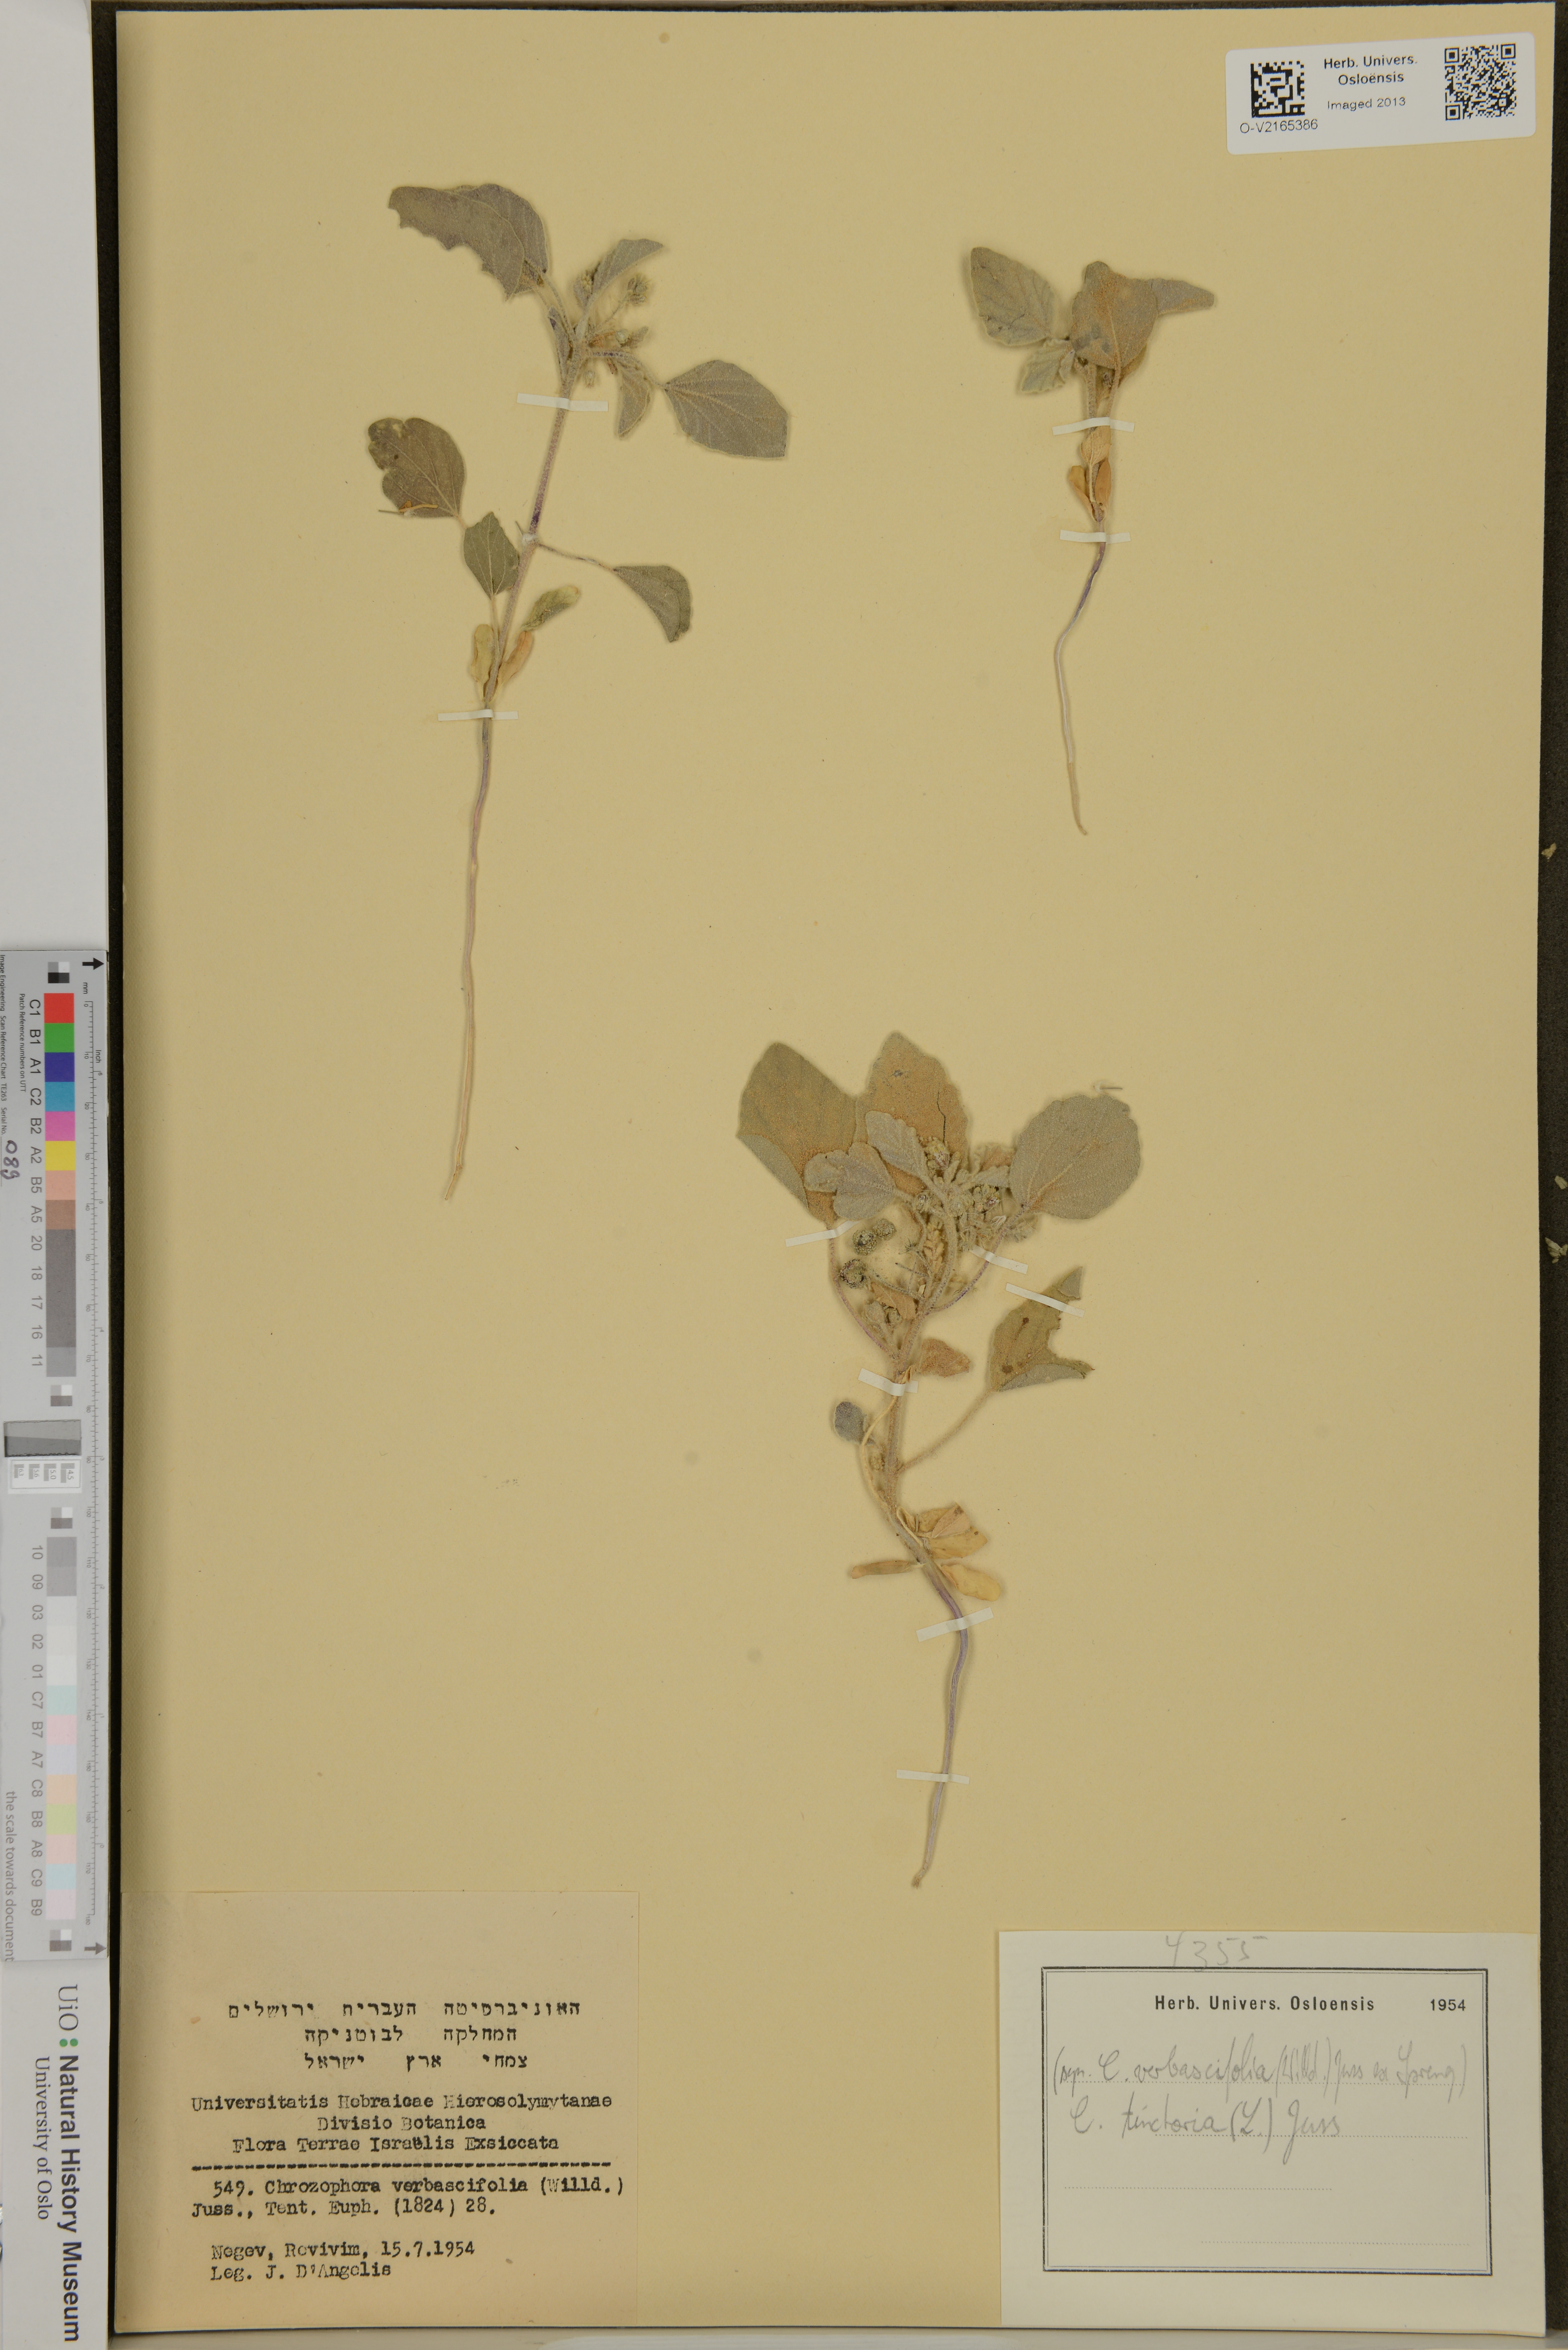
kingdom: Plantae
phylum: Tracheophyta
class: Magnoliopsida
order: Malpighiales
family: Euphorbiaceae
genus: Chrozophora
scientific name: Chrozophora tinctoria
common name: Dyer's litmus
